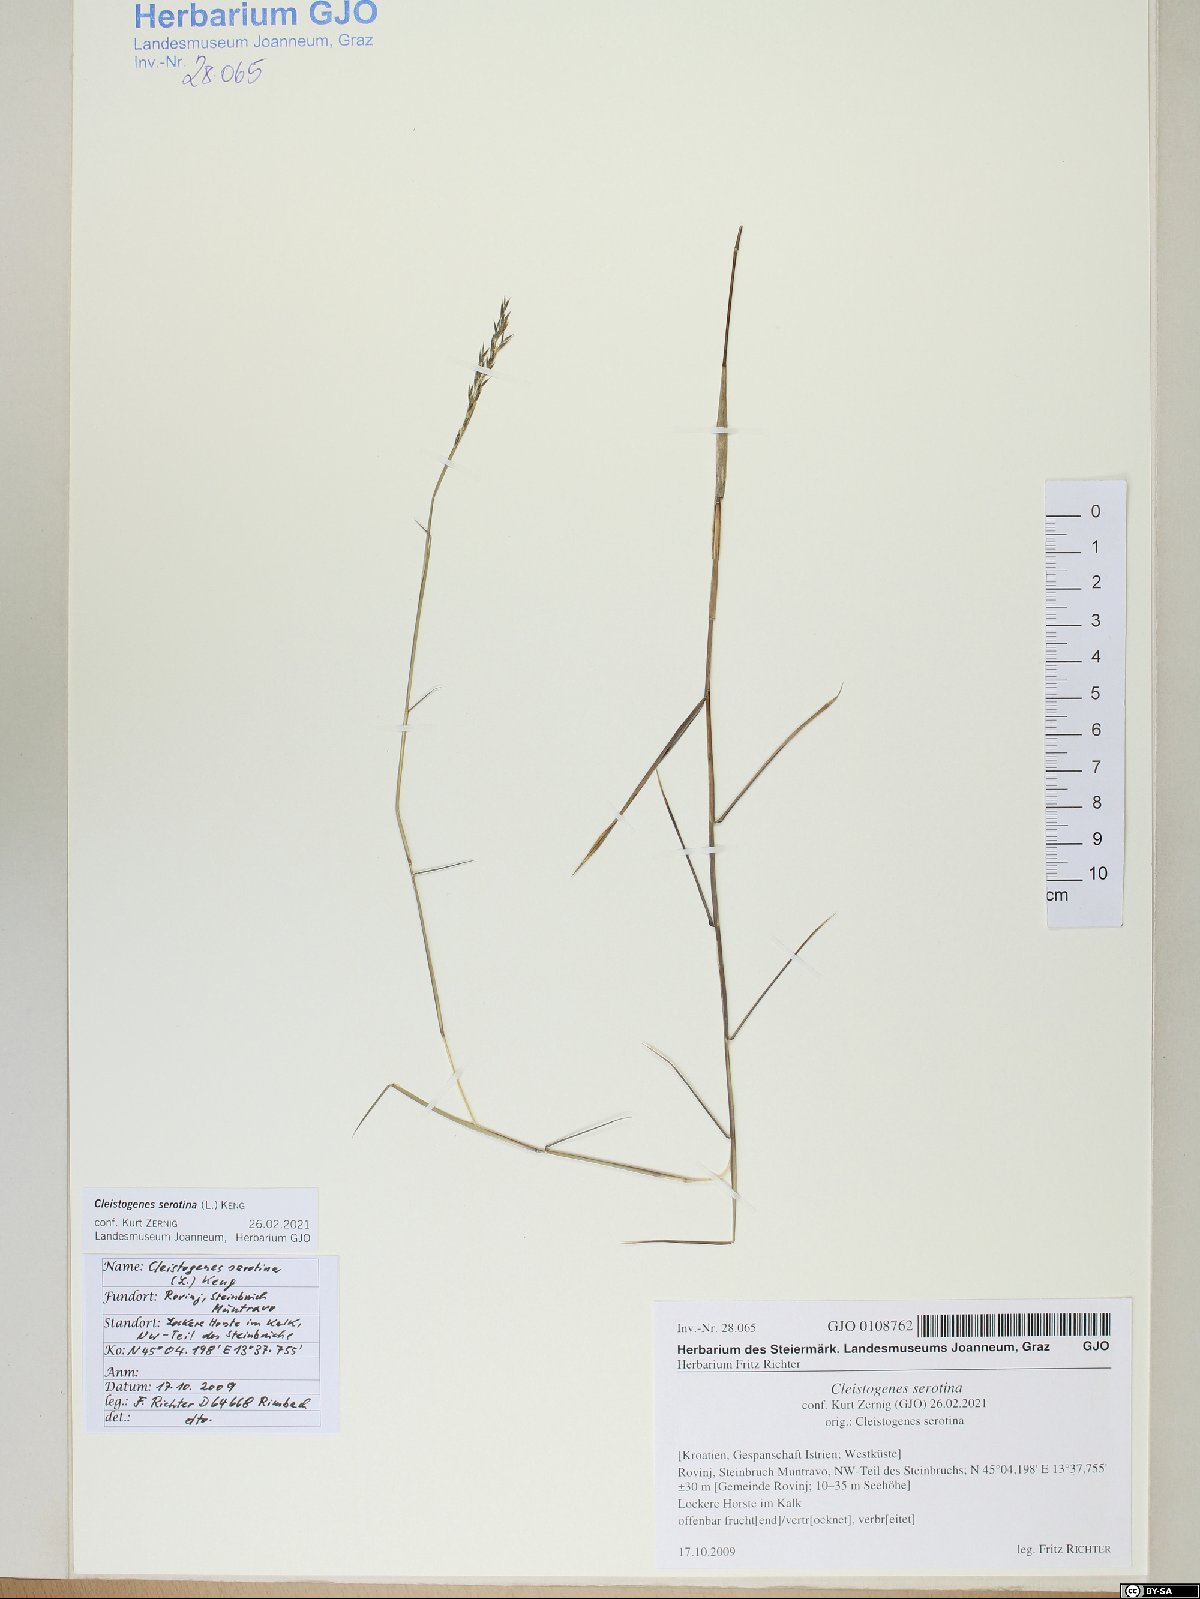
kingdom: Plantae
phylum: Tracheophyta
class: Liliopsida
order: Poales
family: Poaceae
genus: Cleistogenes
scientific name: Cleistogenes serotina
